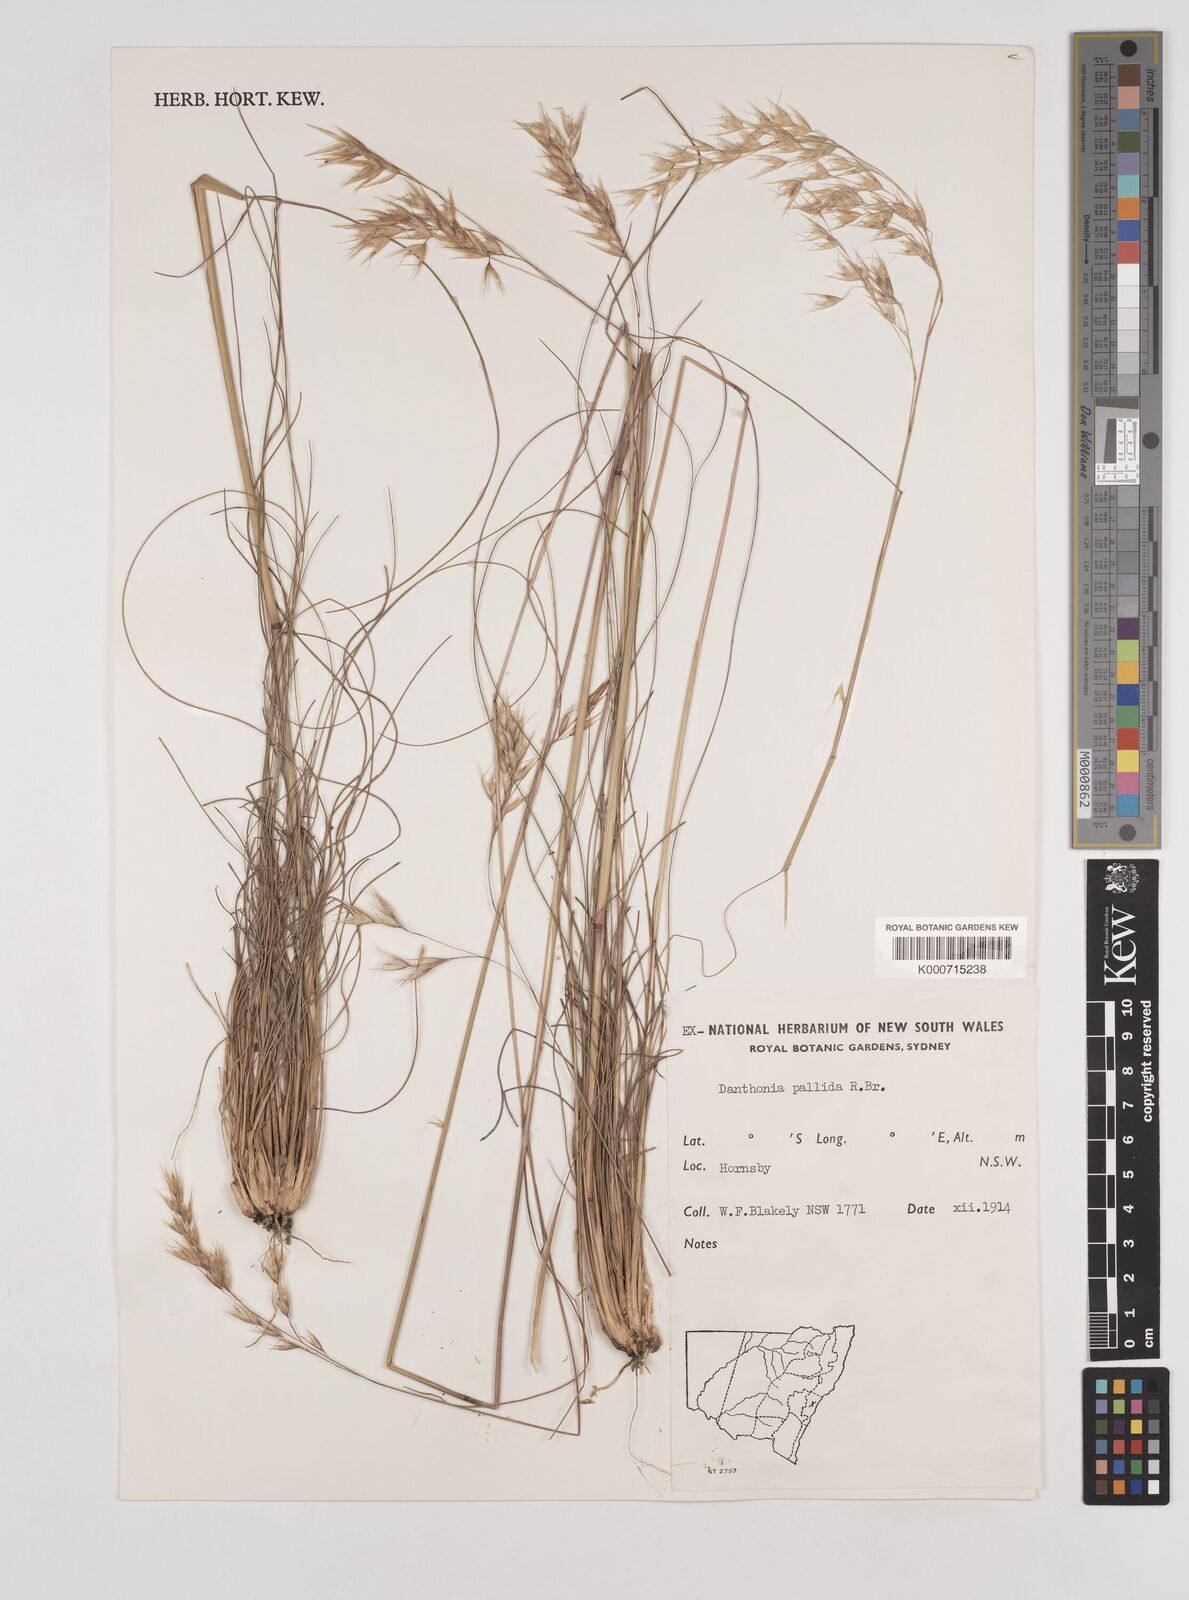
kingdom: Plantae
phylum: Tracheophyta
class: Liliopsida
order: Poales
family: Poaceae
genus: Rytidosperma
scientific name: Rytidosperma
